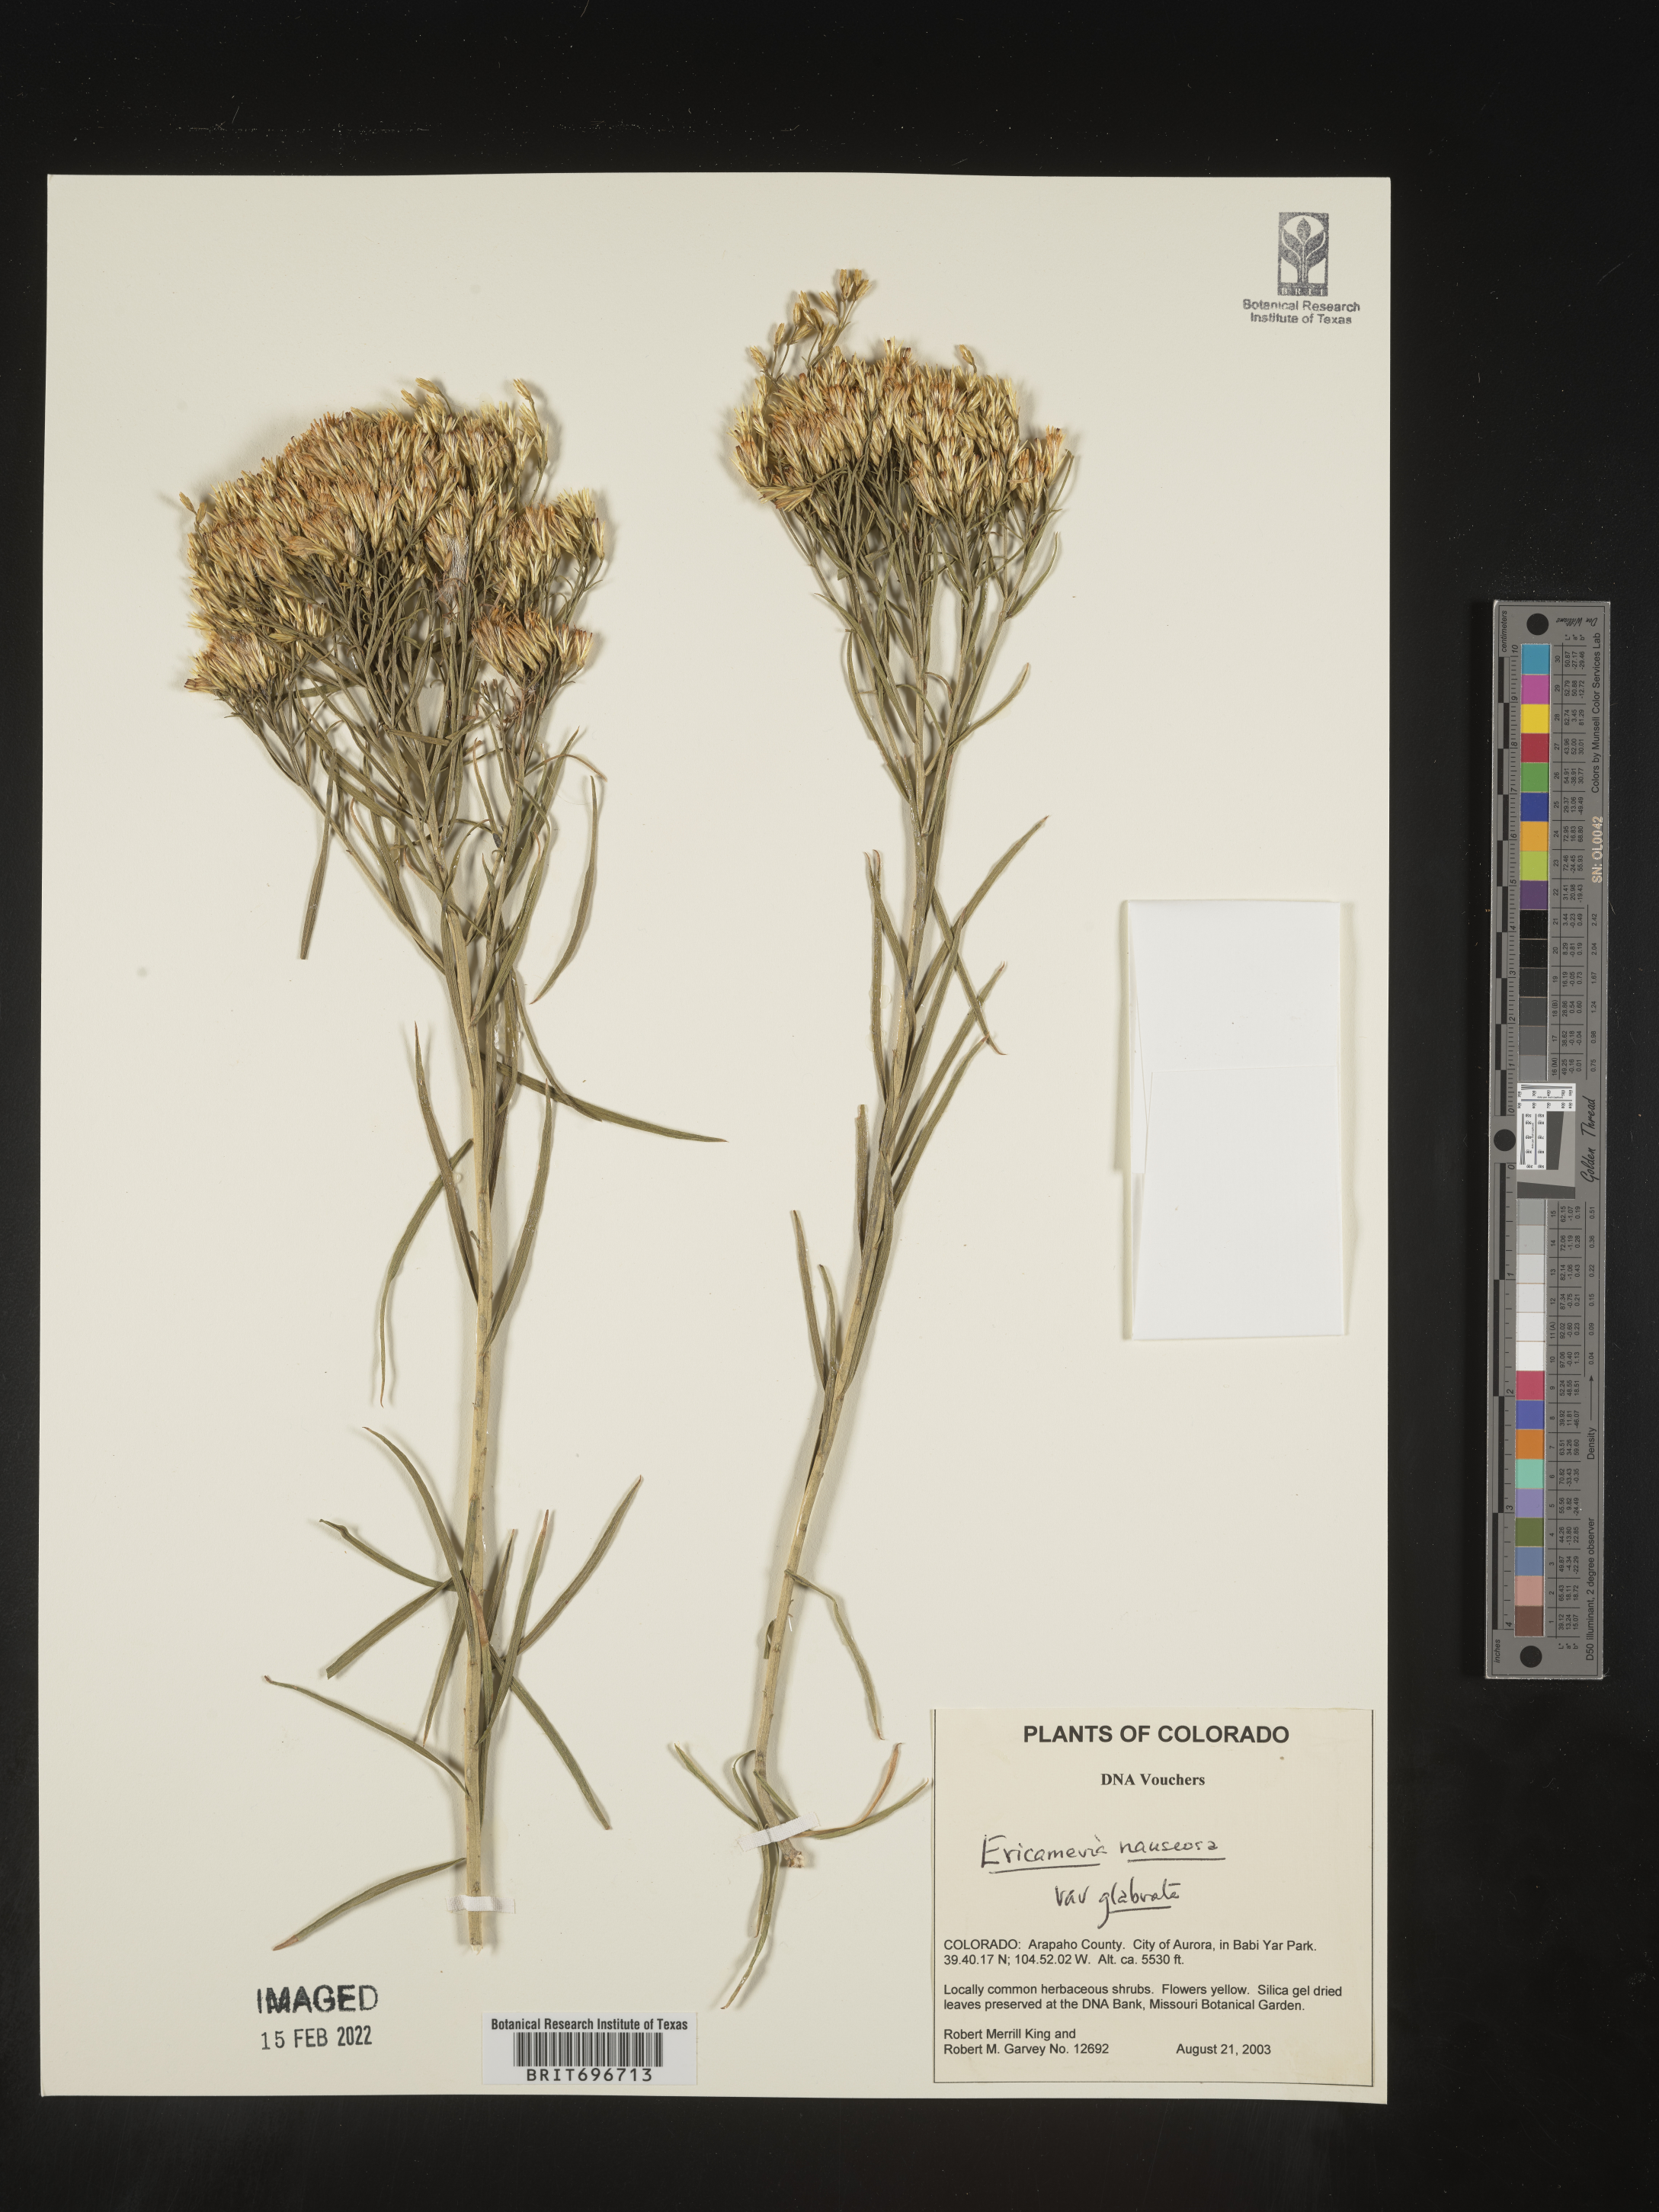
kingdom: Plantae
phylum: Tracheophyta
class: Magnoliopsida
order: Asterales
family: Asteraceae
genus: Ericameria
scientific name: Ericameria nauseosa
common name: Rubber rabbitbrush
